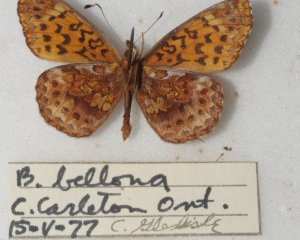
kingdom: Animalia
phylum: Arthropoda
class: Insecta
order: Lepidoptera
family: Nymphalidae
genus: Clossiana
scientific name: Clossiana toddi
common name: Meadow Fritillary
